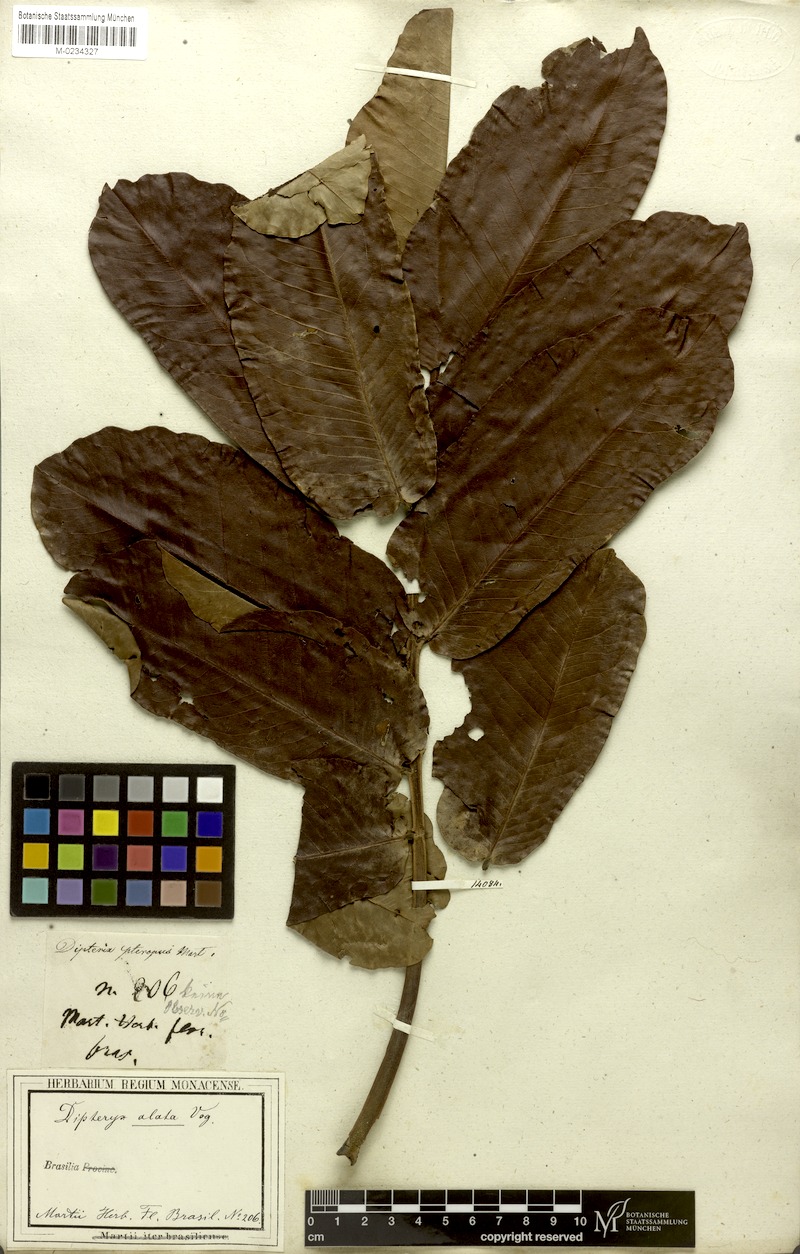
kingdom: Plantae
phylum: Tracheophyta
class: Magnoliopsida
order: Fabales
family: Fabaceae
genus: Dipteryx
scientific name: Dipteryx alata
